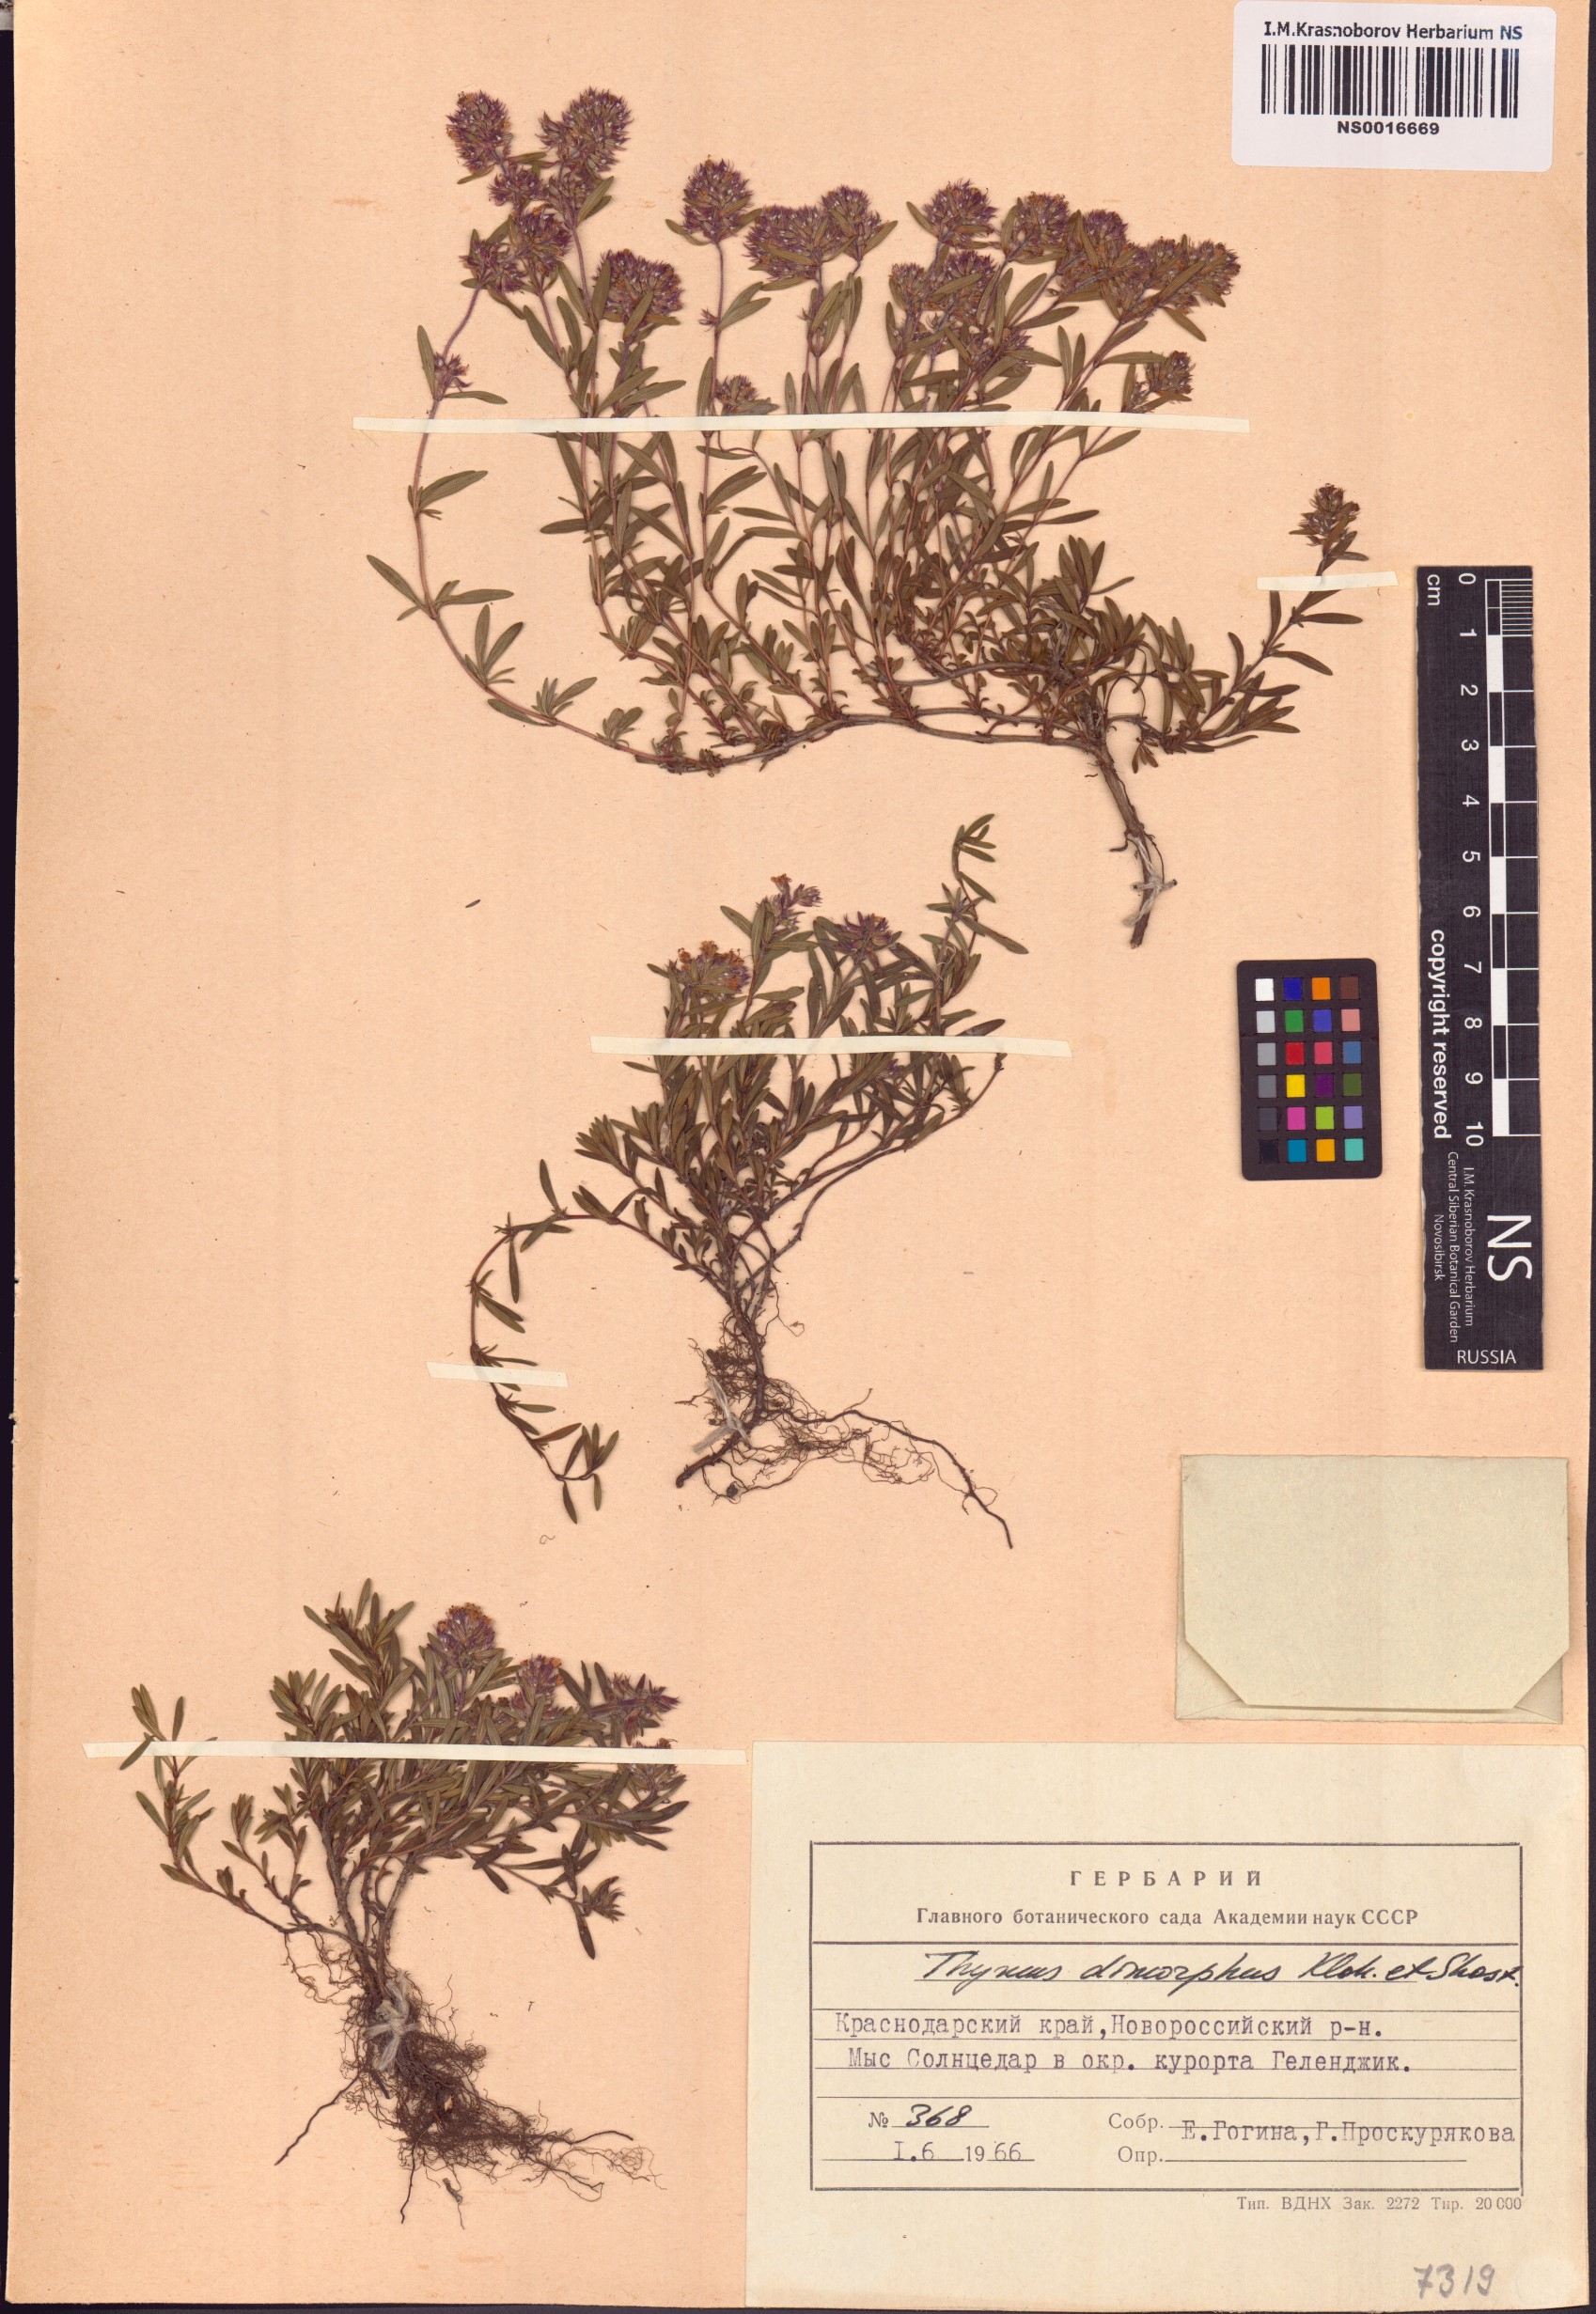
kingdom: Plantae
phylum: Tracheophyta
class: Magnoliopsida
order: Lamiales
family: Lamiaceae
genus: Thymus
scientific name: Thymus dimorphus
